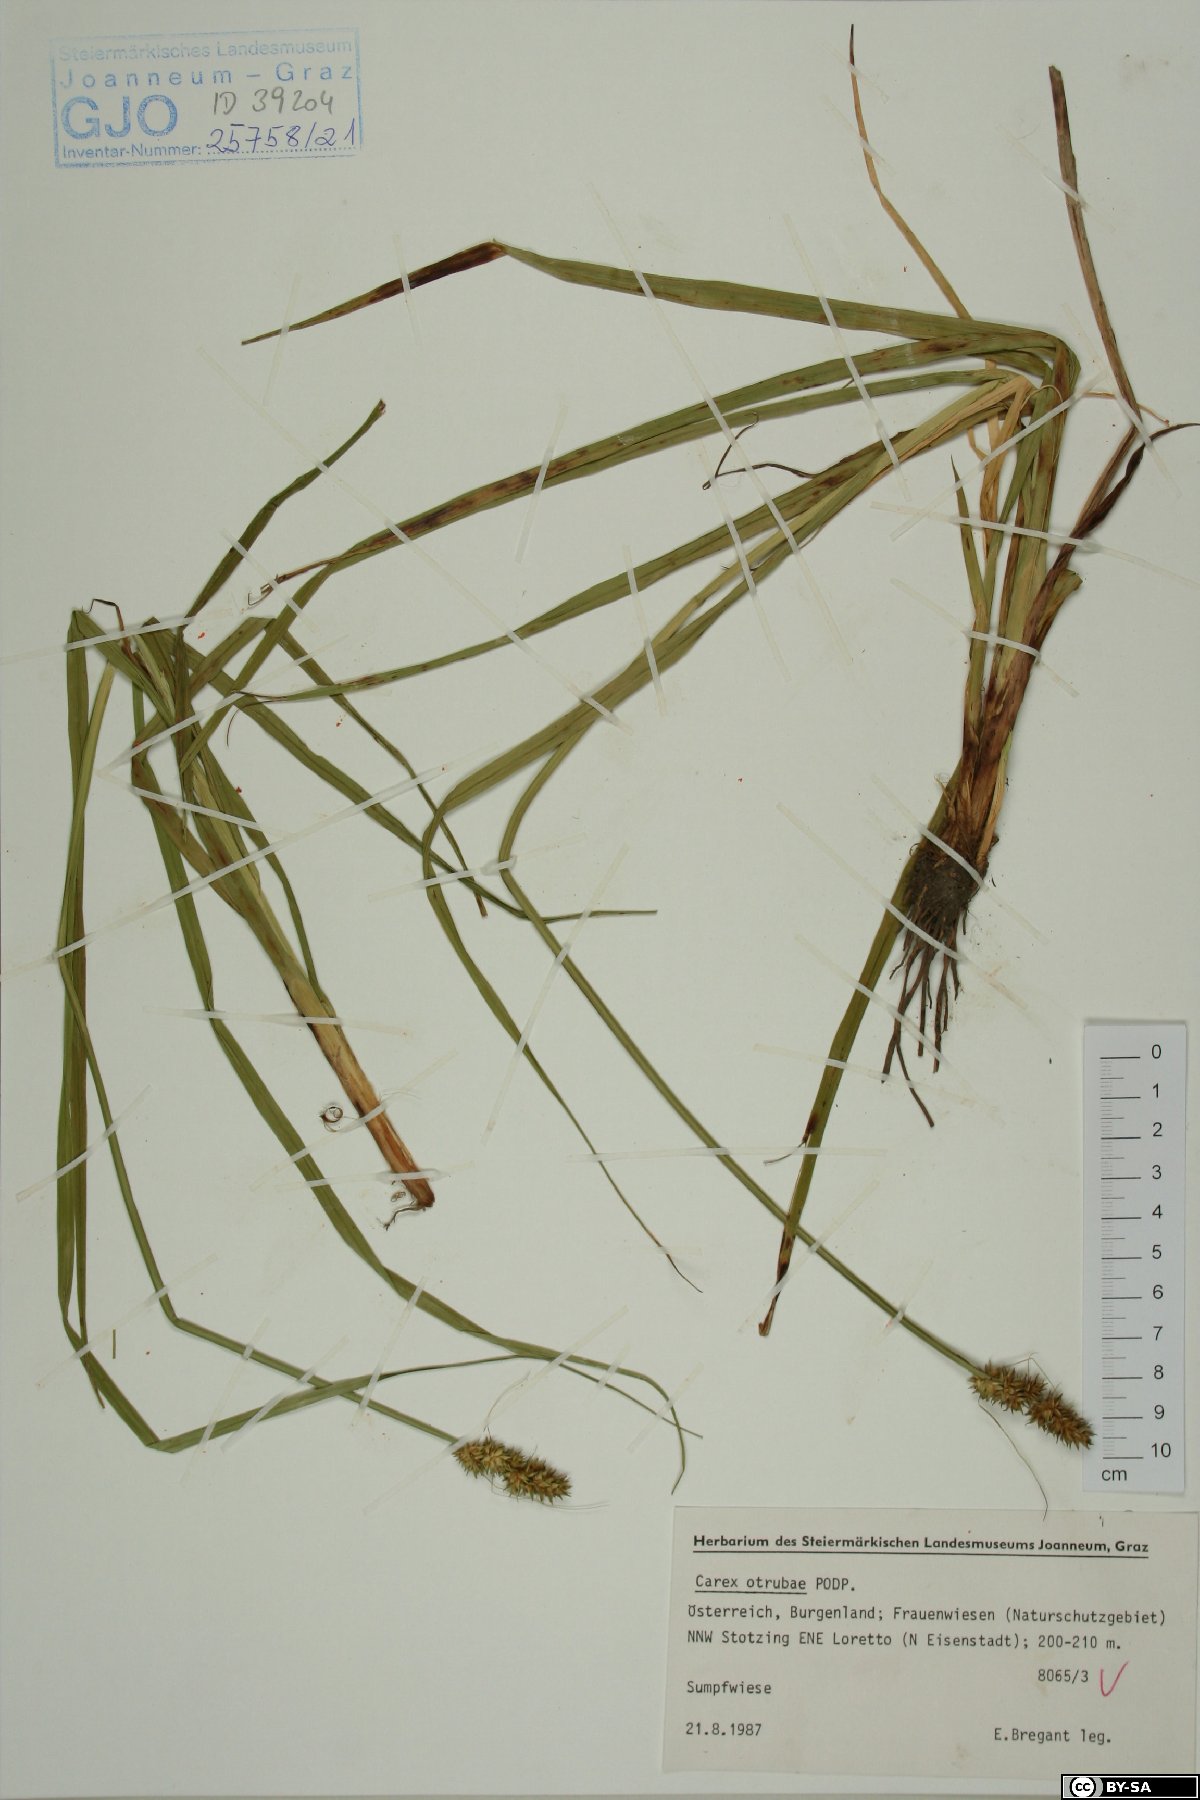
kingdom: Plantae
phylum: Tracheophyta
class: Liliopsida
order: Poales
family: Cyperaceae
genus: Carex
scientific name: Carex otrubae
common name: False fox-sedge
